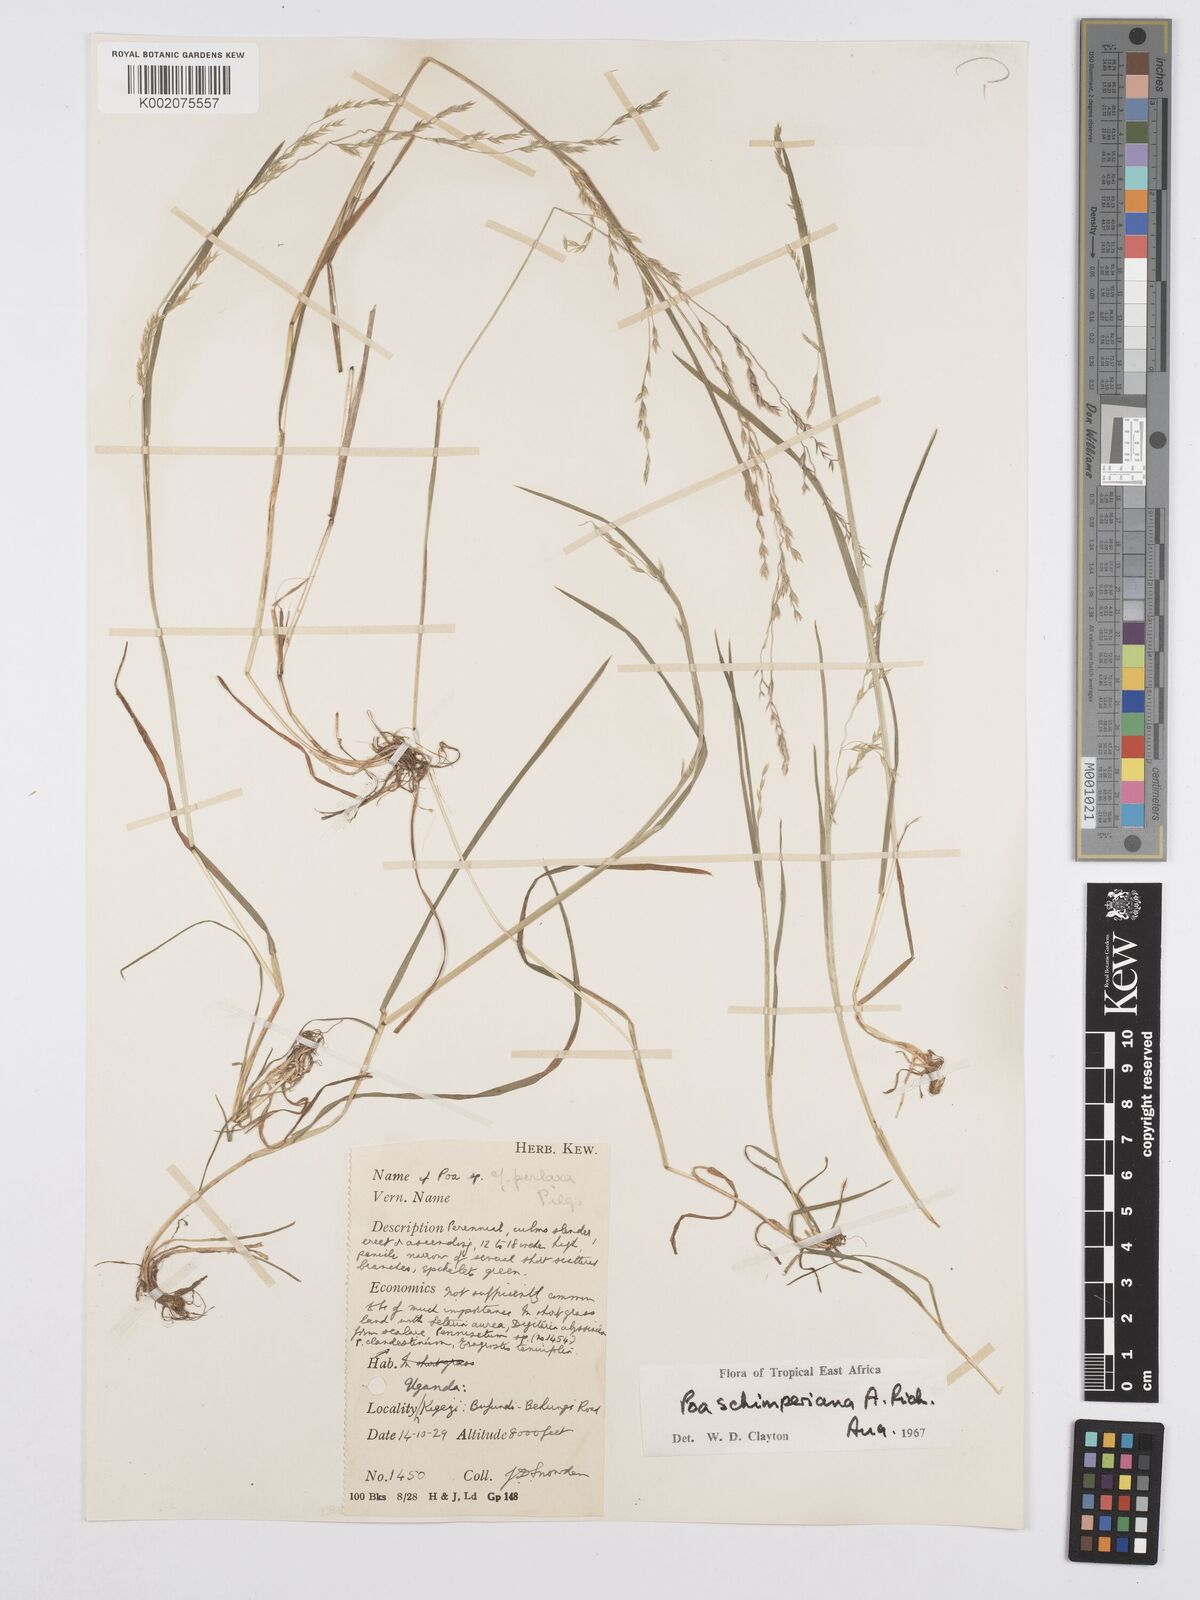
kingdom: Plantae
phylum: Tracheophyta
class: Liliopsida
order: Poales
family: Poaceae
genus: Poa
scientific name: Poa schimperiana
